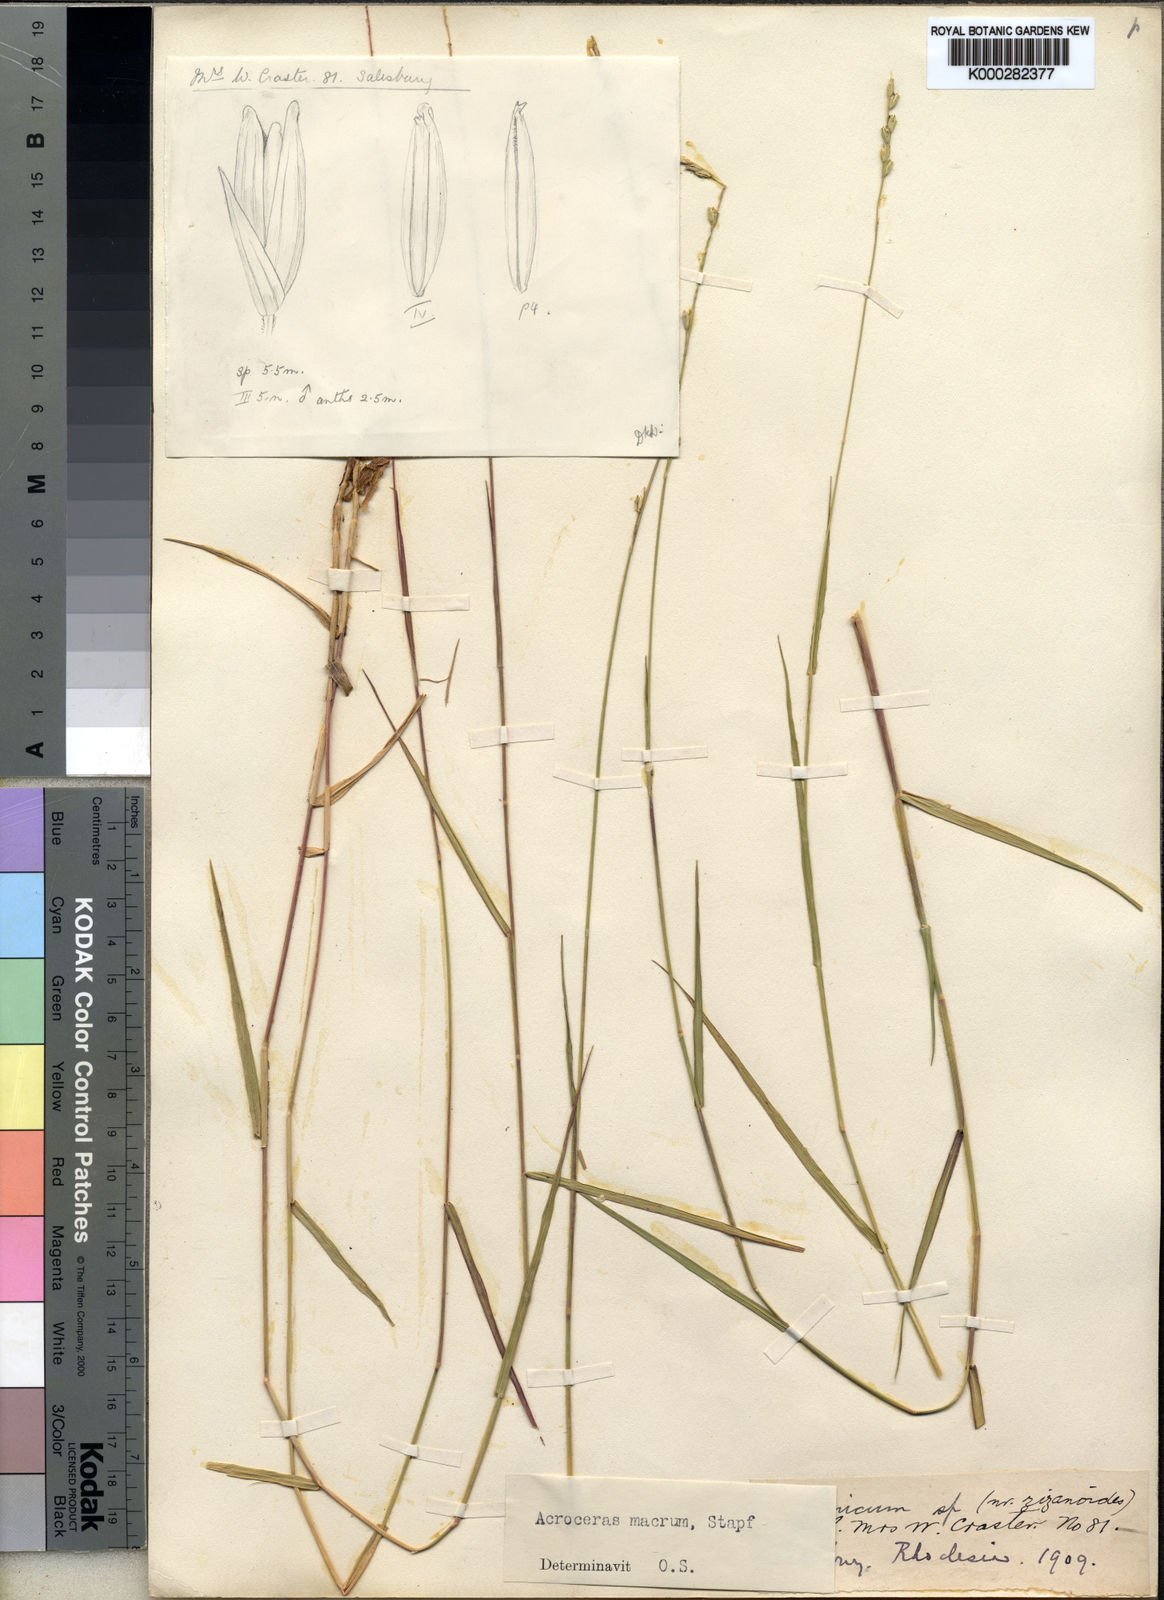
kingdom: Plantae
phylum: Tracheophyta
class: Liliopsida
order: Poales
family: Poaceae
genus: Acroceras
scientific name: Acroceras macrum
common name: Nyl grass
